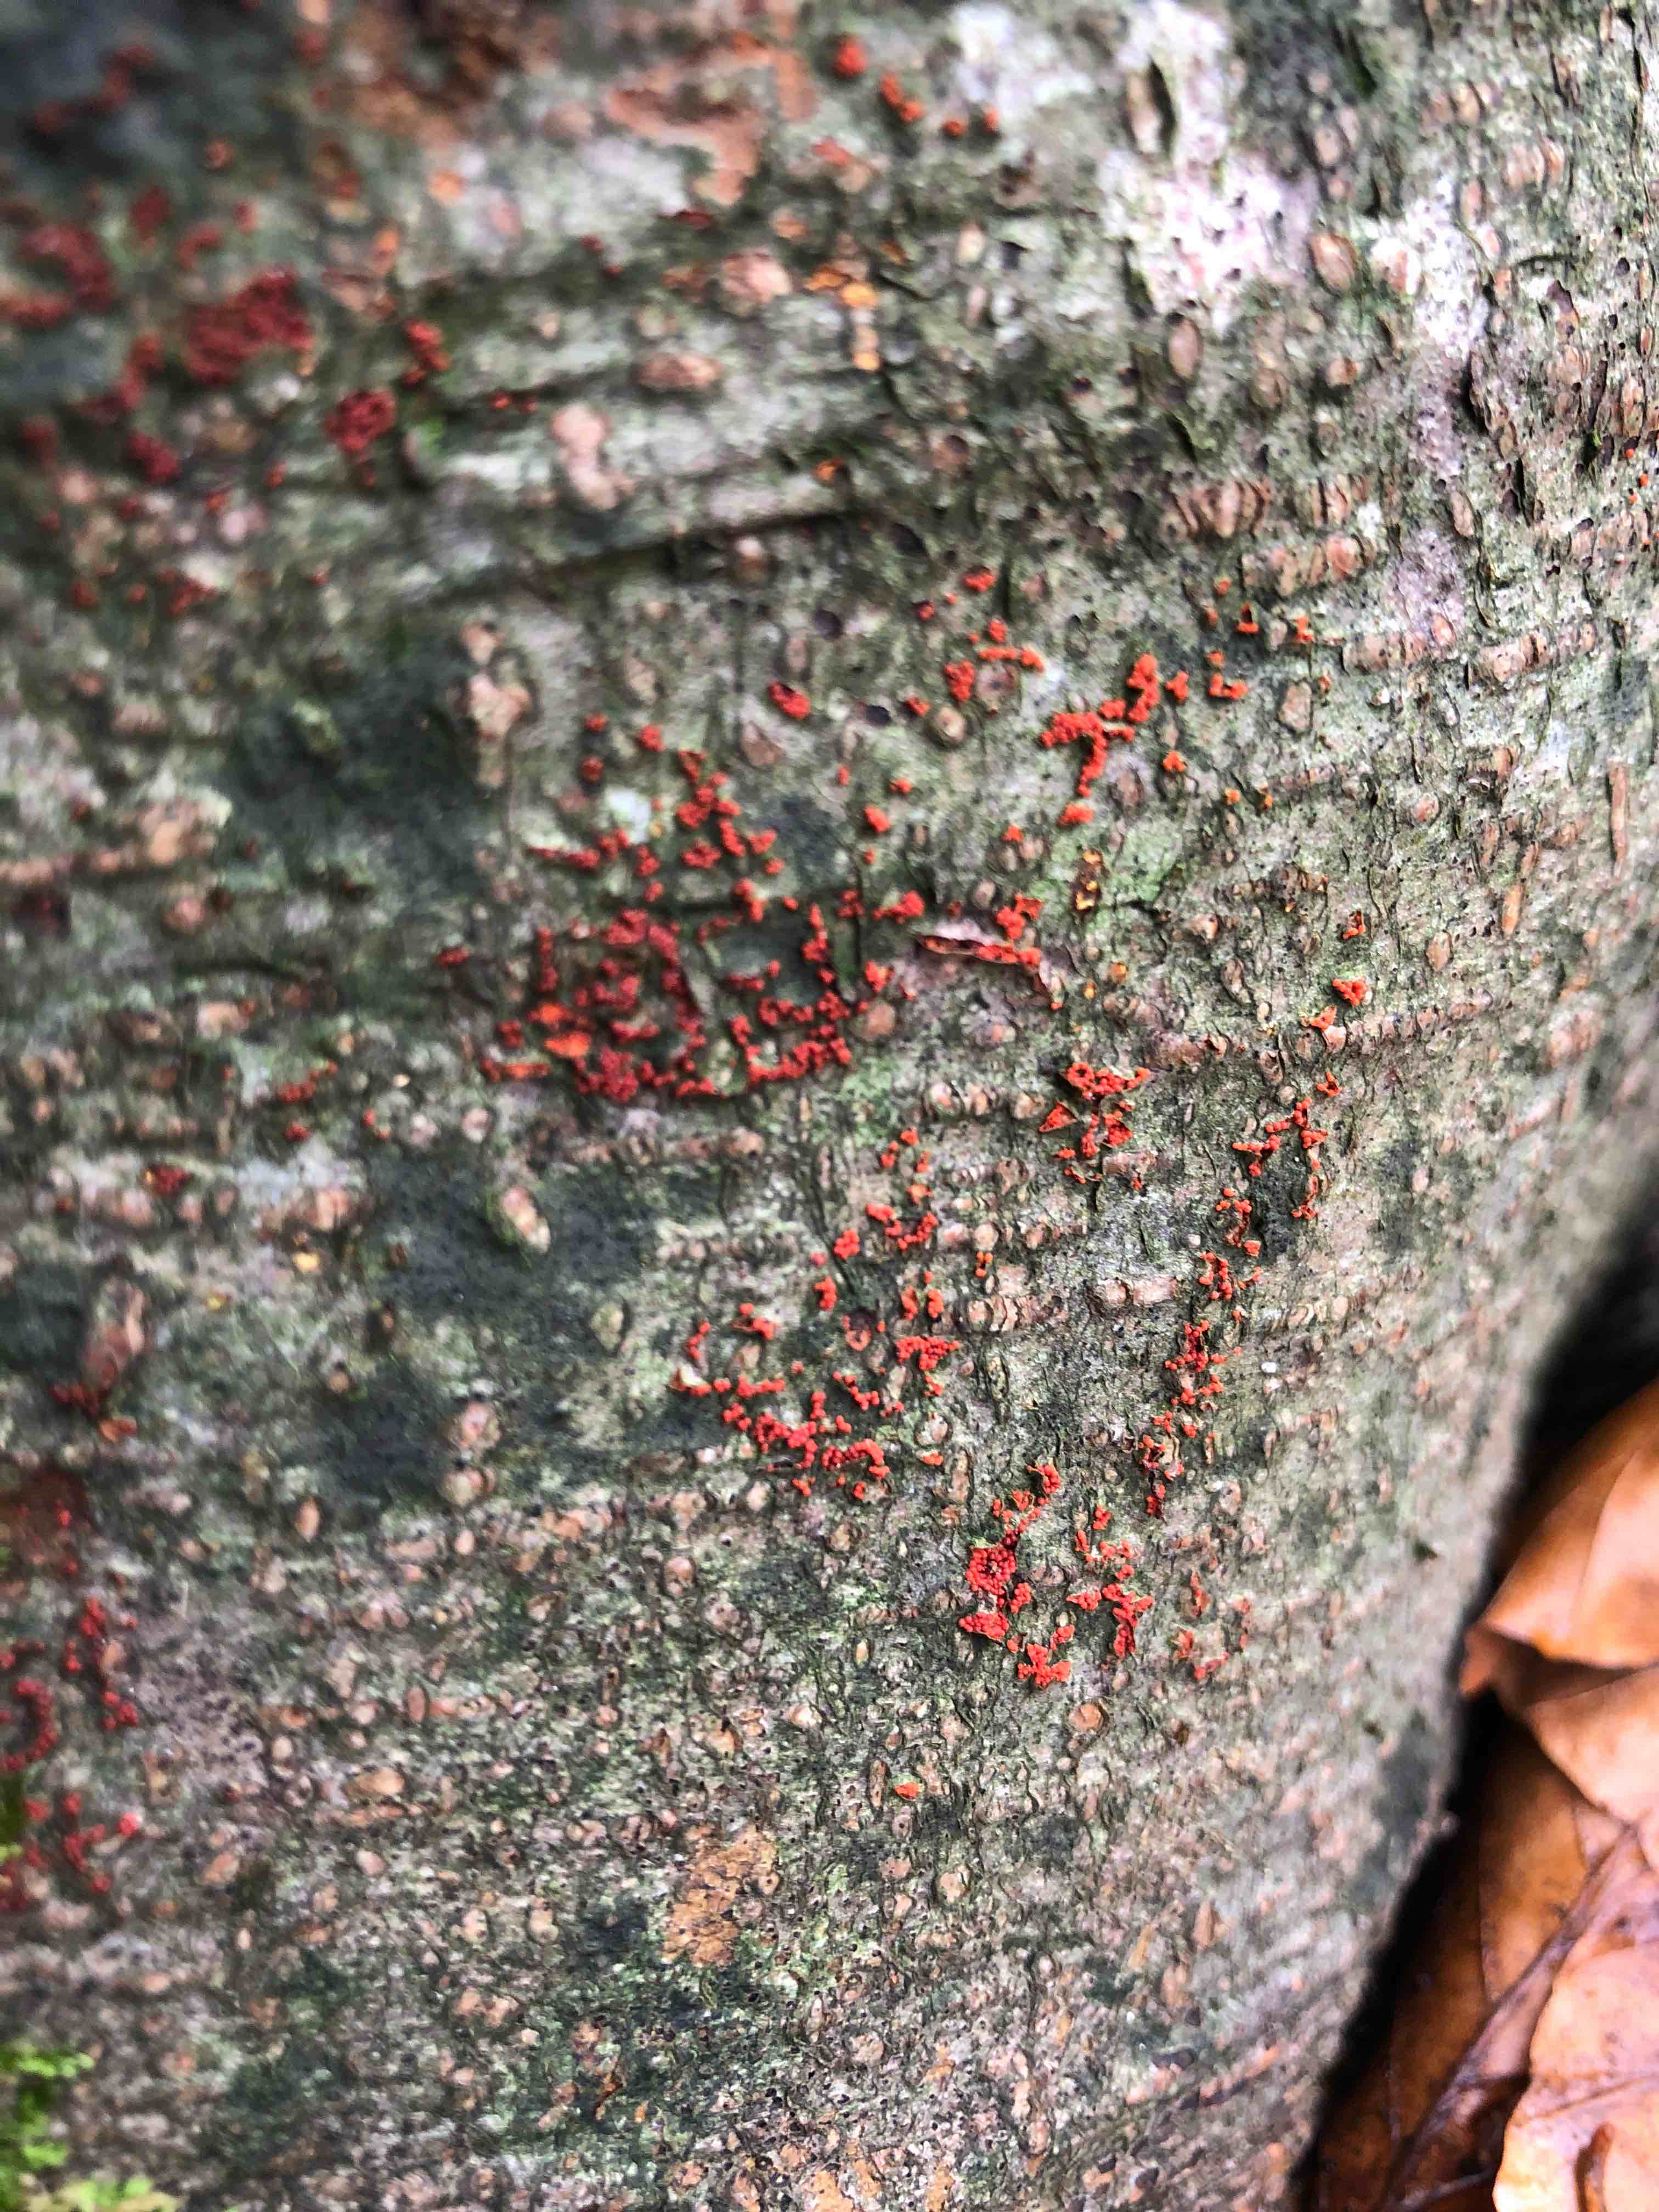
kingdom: Fungi
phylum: Ascomycota
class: Sordariomycetes
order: Hypocreales
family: Nectriaceae
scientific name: Nectriaceae
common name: cinnobersvampfamilien
